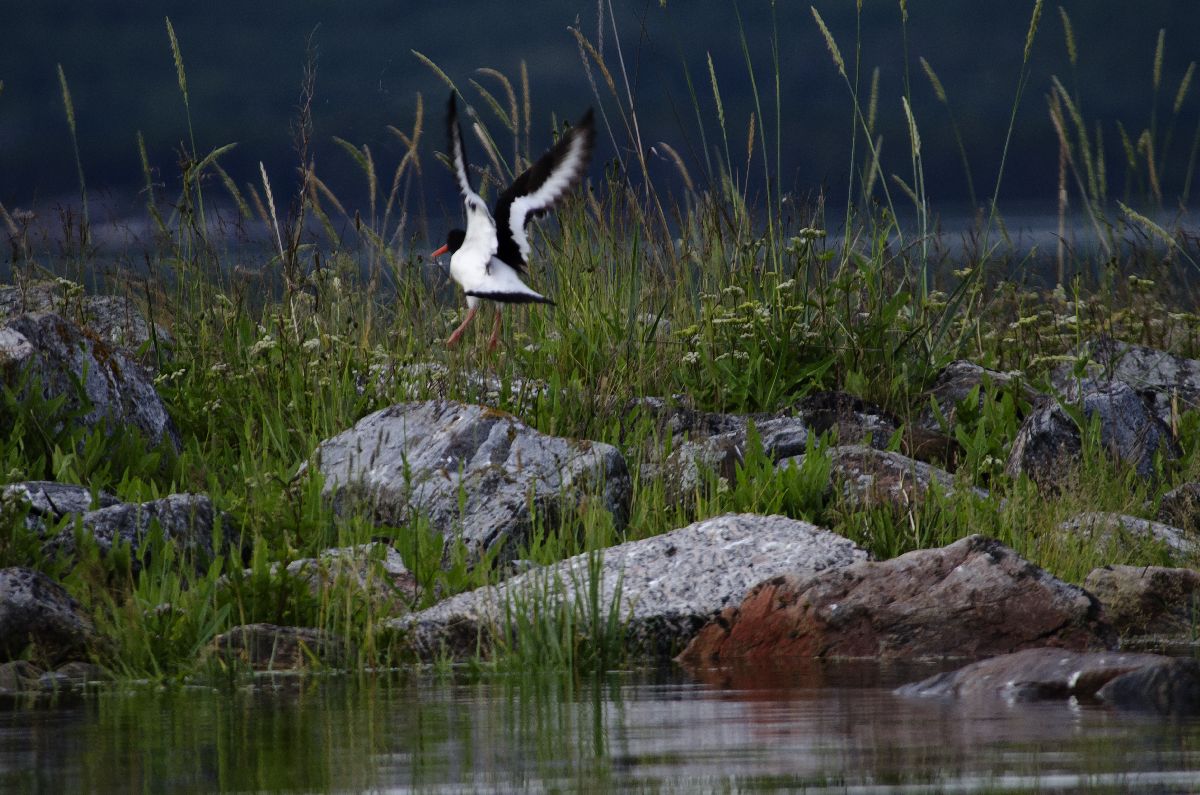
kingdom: Animalia
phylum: Chordata
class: Aves
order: Charadriiformes
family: Haematopodidae
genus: Haematopus
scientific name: Haematopus ostralegus
